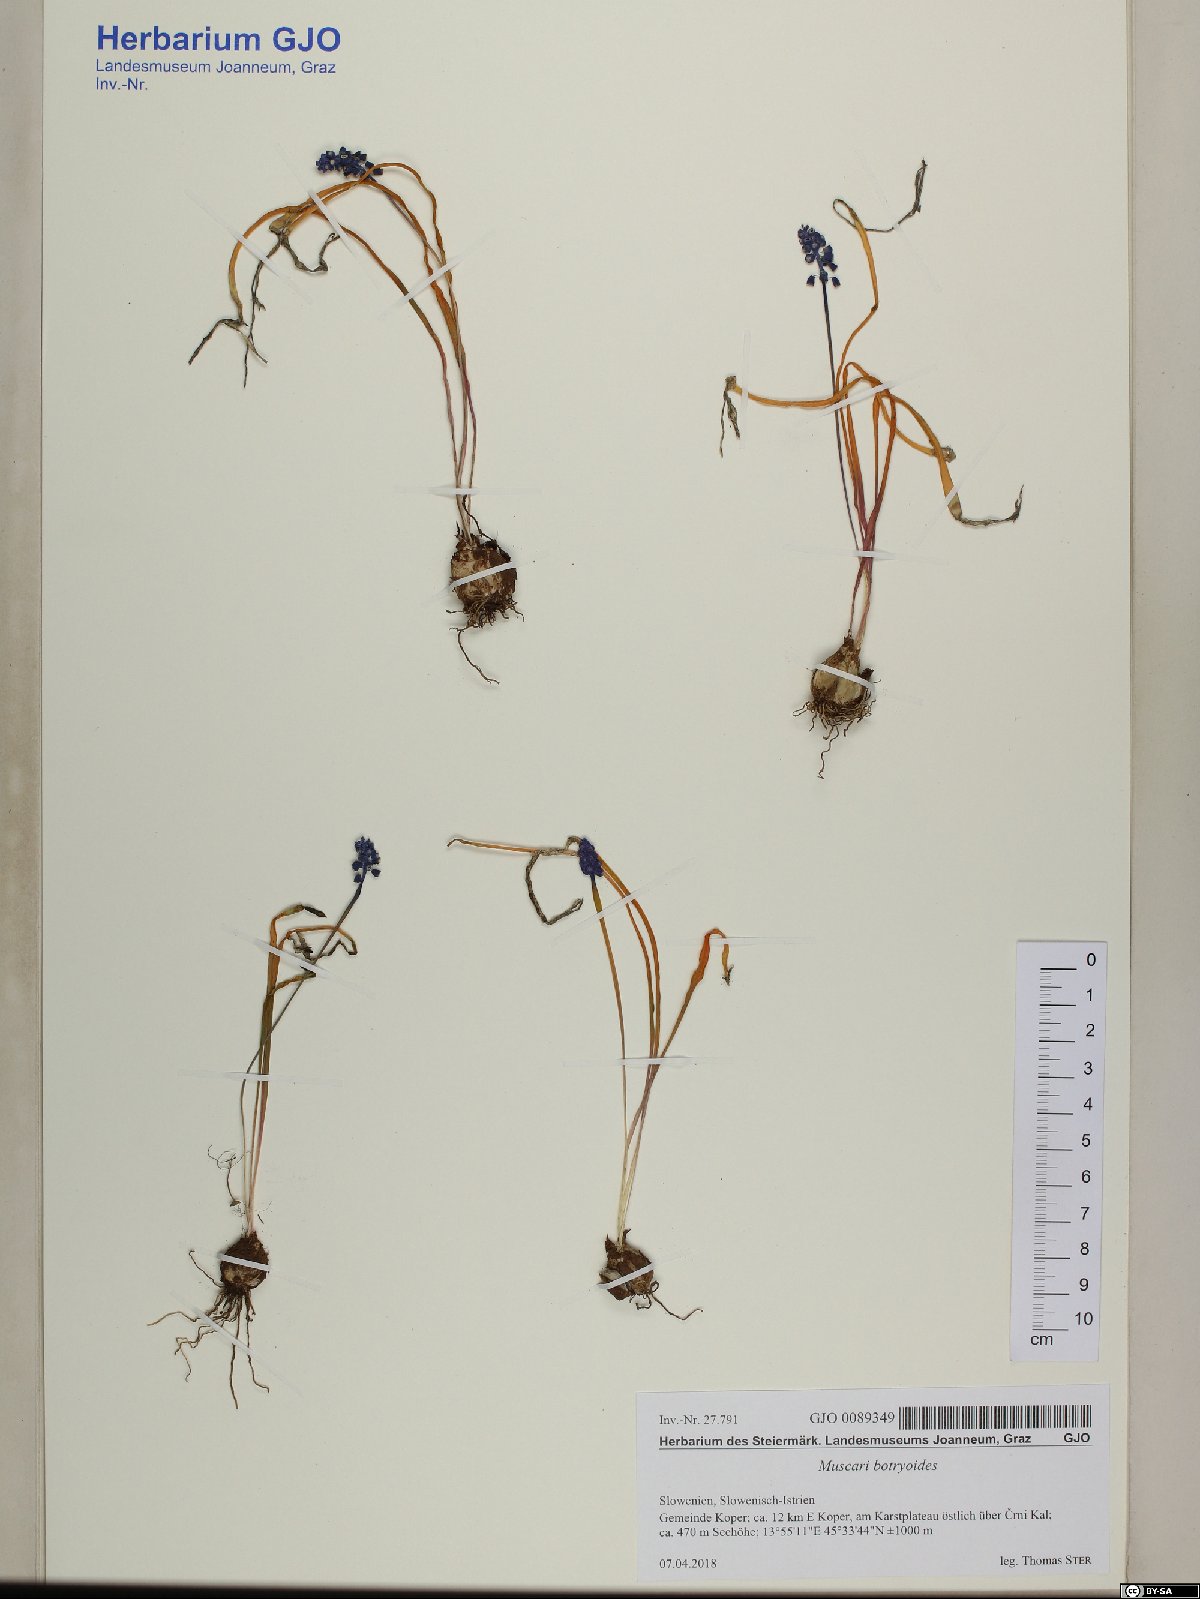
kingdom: Plantae
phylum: Tracheophyta
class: Liliopsida
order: Asparagales
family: Asparagaceae
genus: Muscari
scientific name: Muscari botryoides
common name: Compact grape-hyacinth
